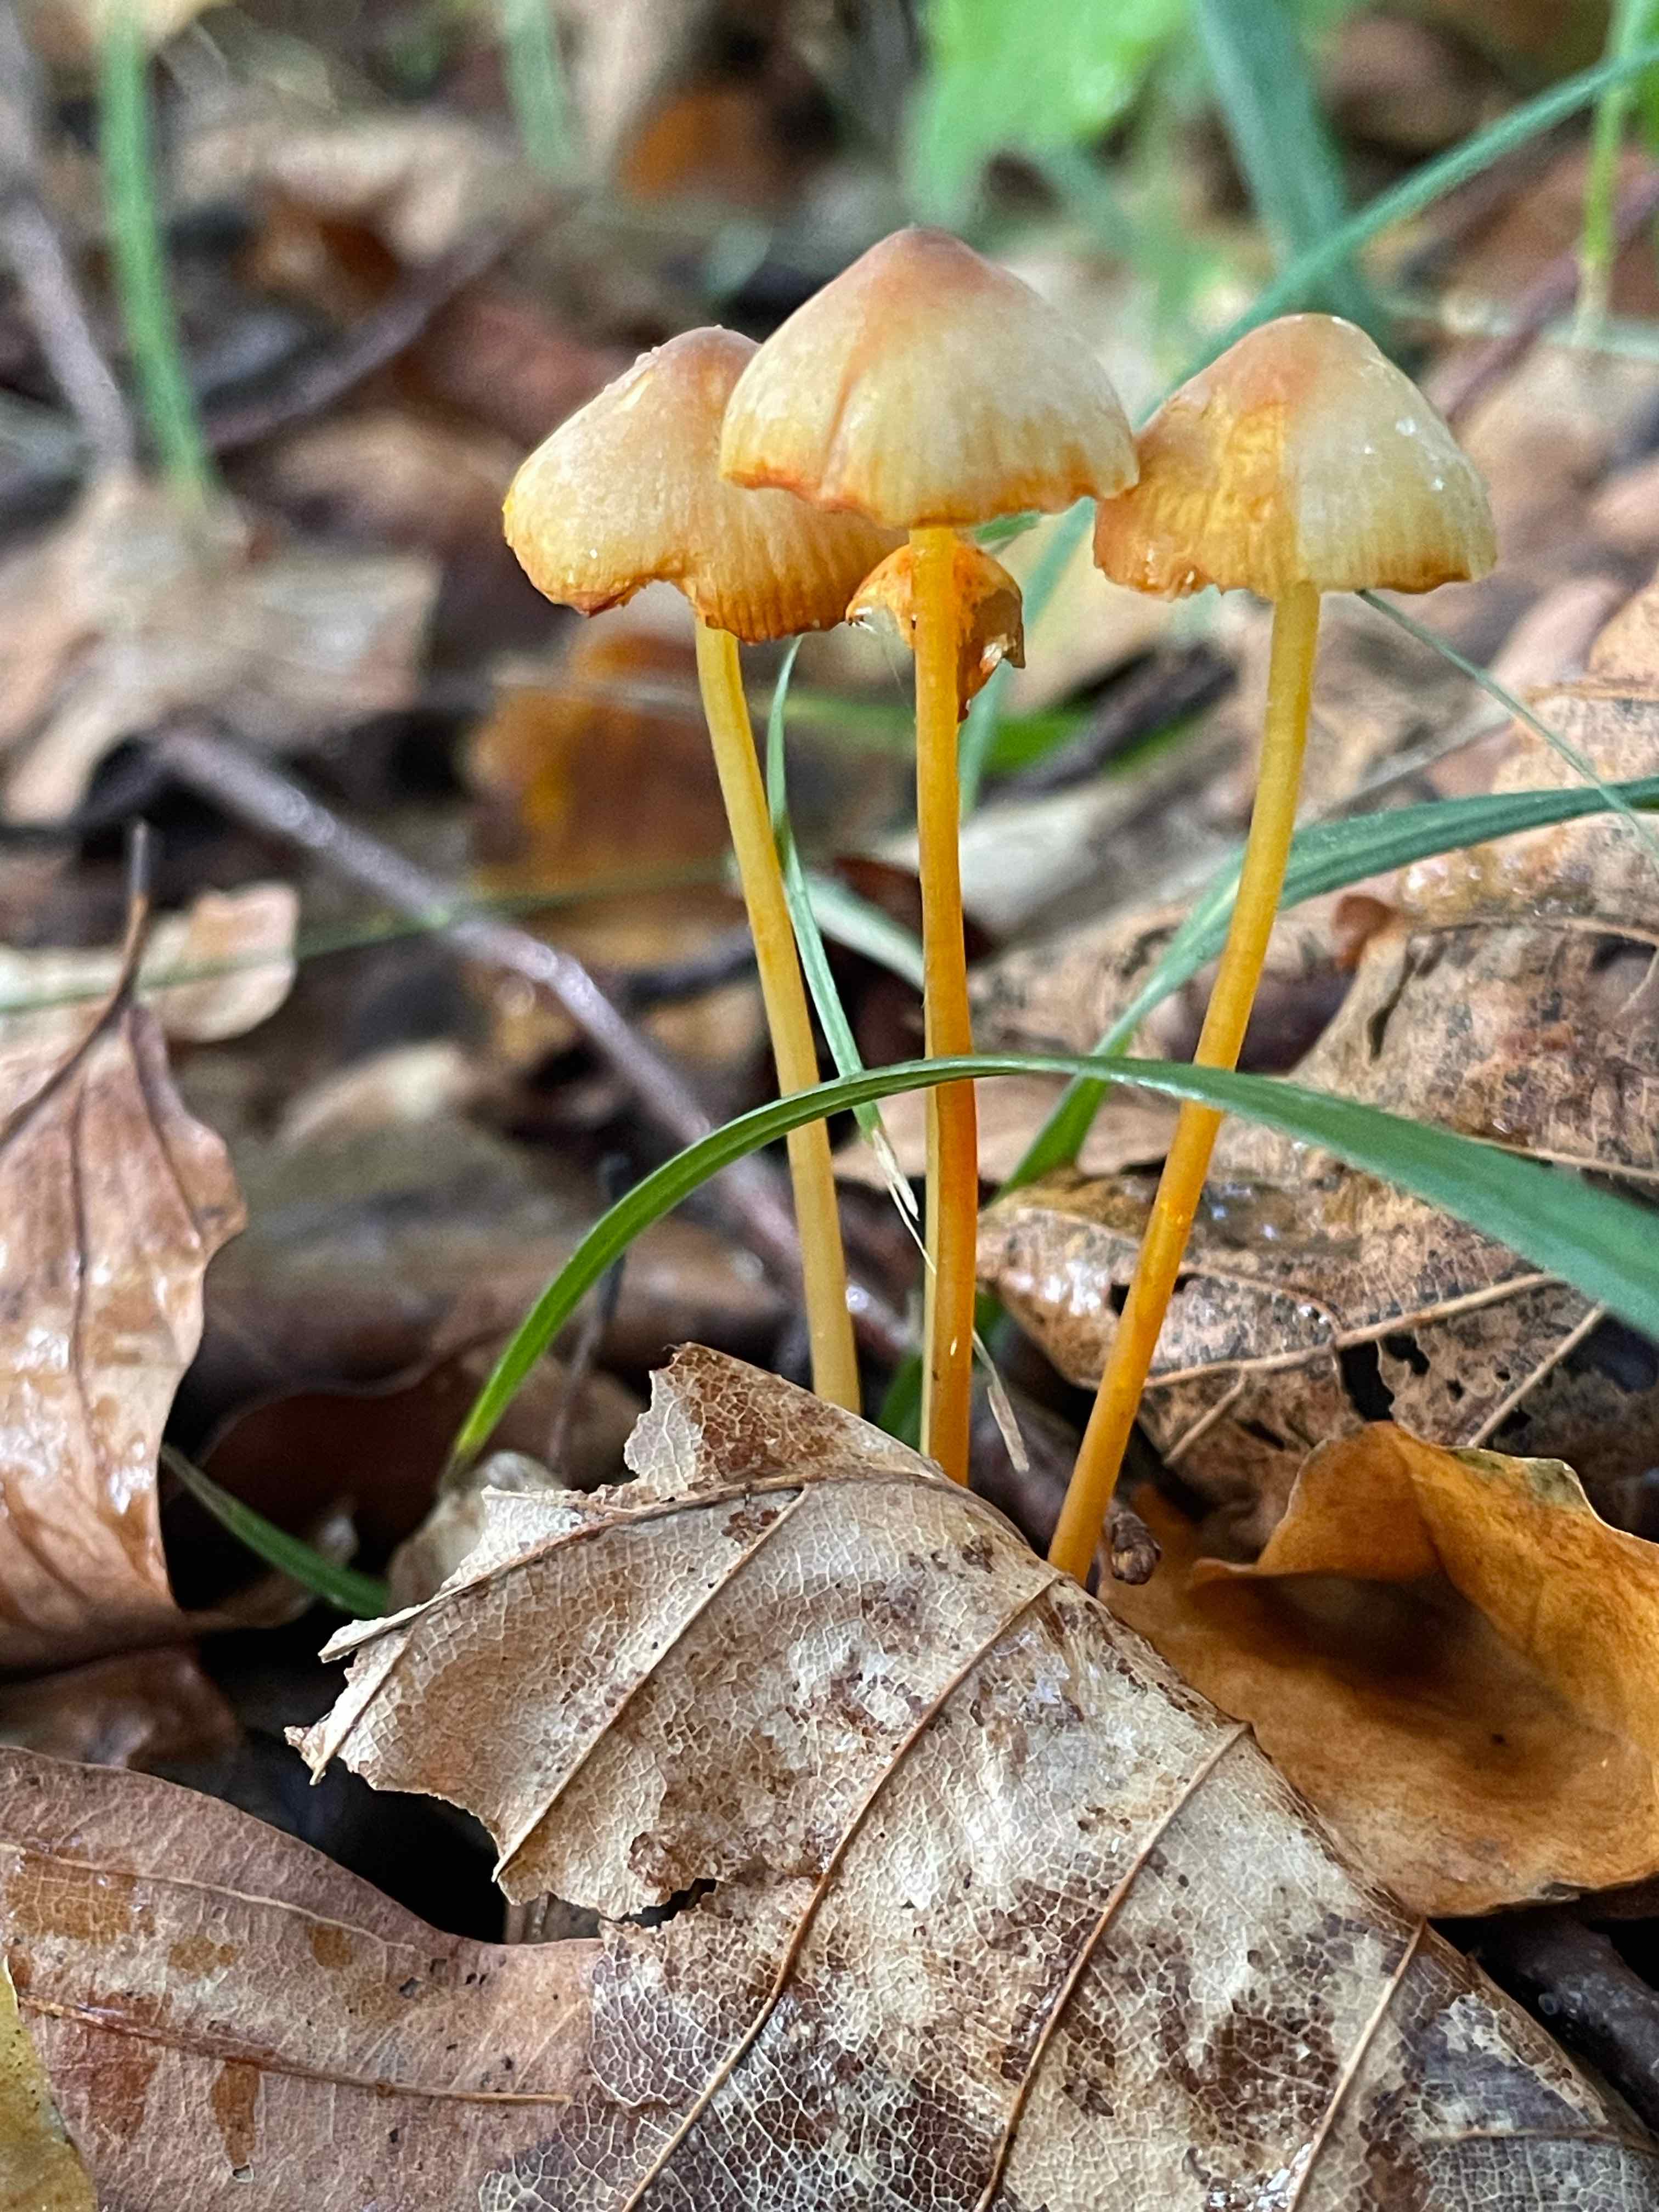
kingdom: Fungi
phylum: Basidiomycota
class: Agaricomycetes
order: Agaricales
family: Mycenaceae
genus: Mycena
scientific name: Mycena crocata
